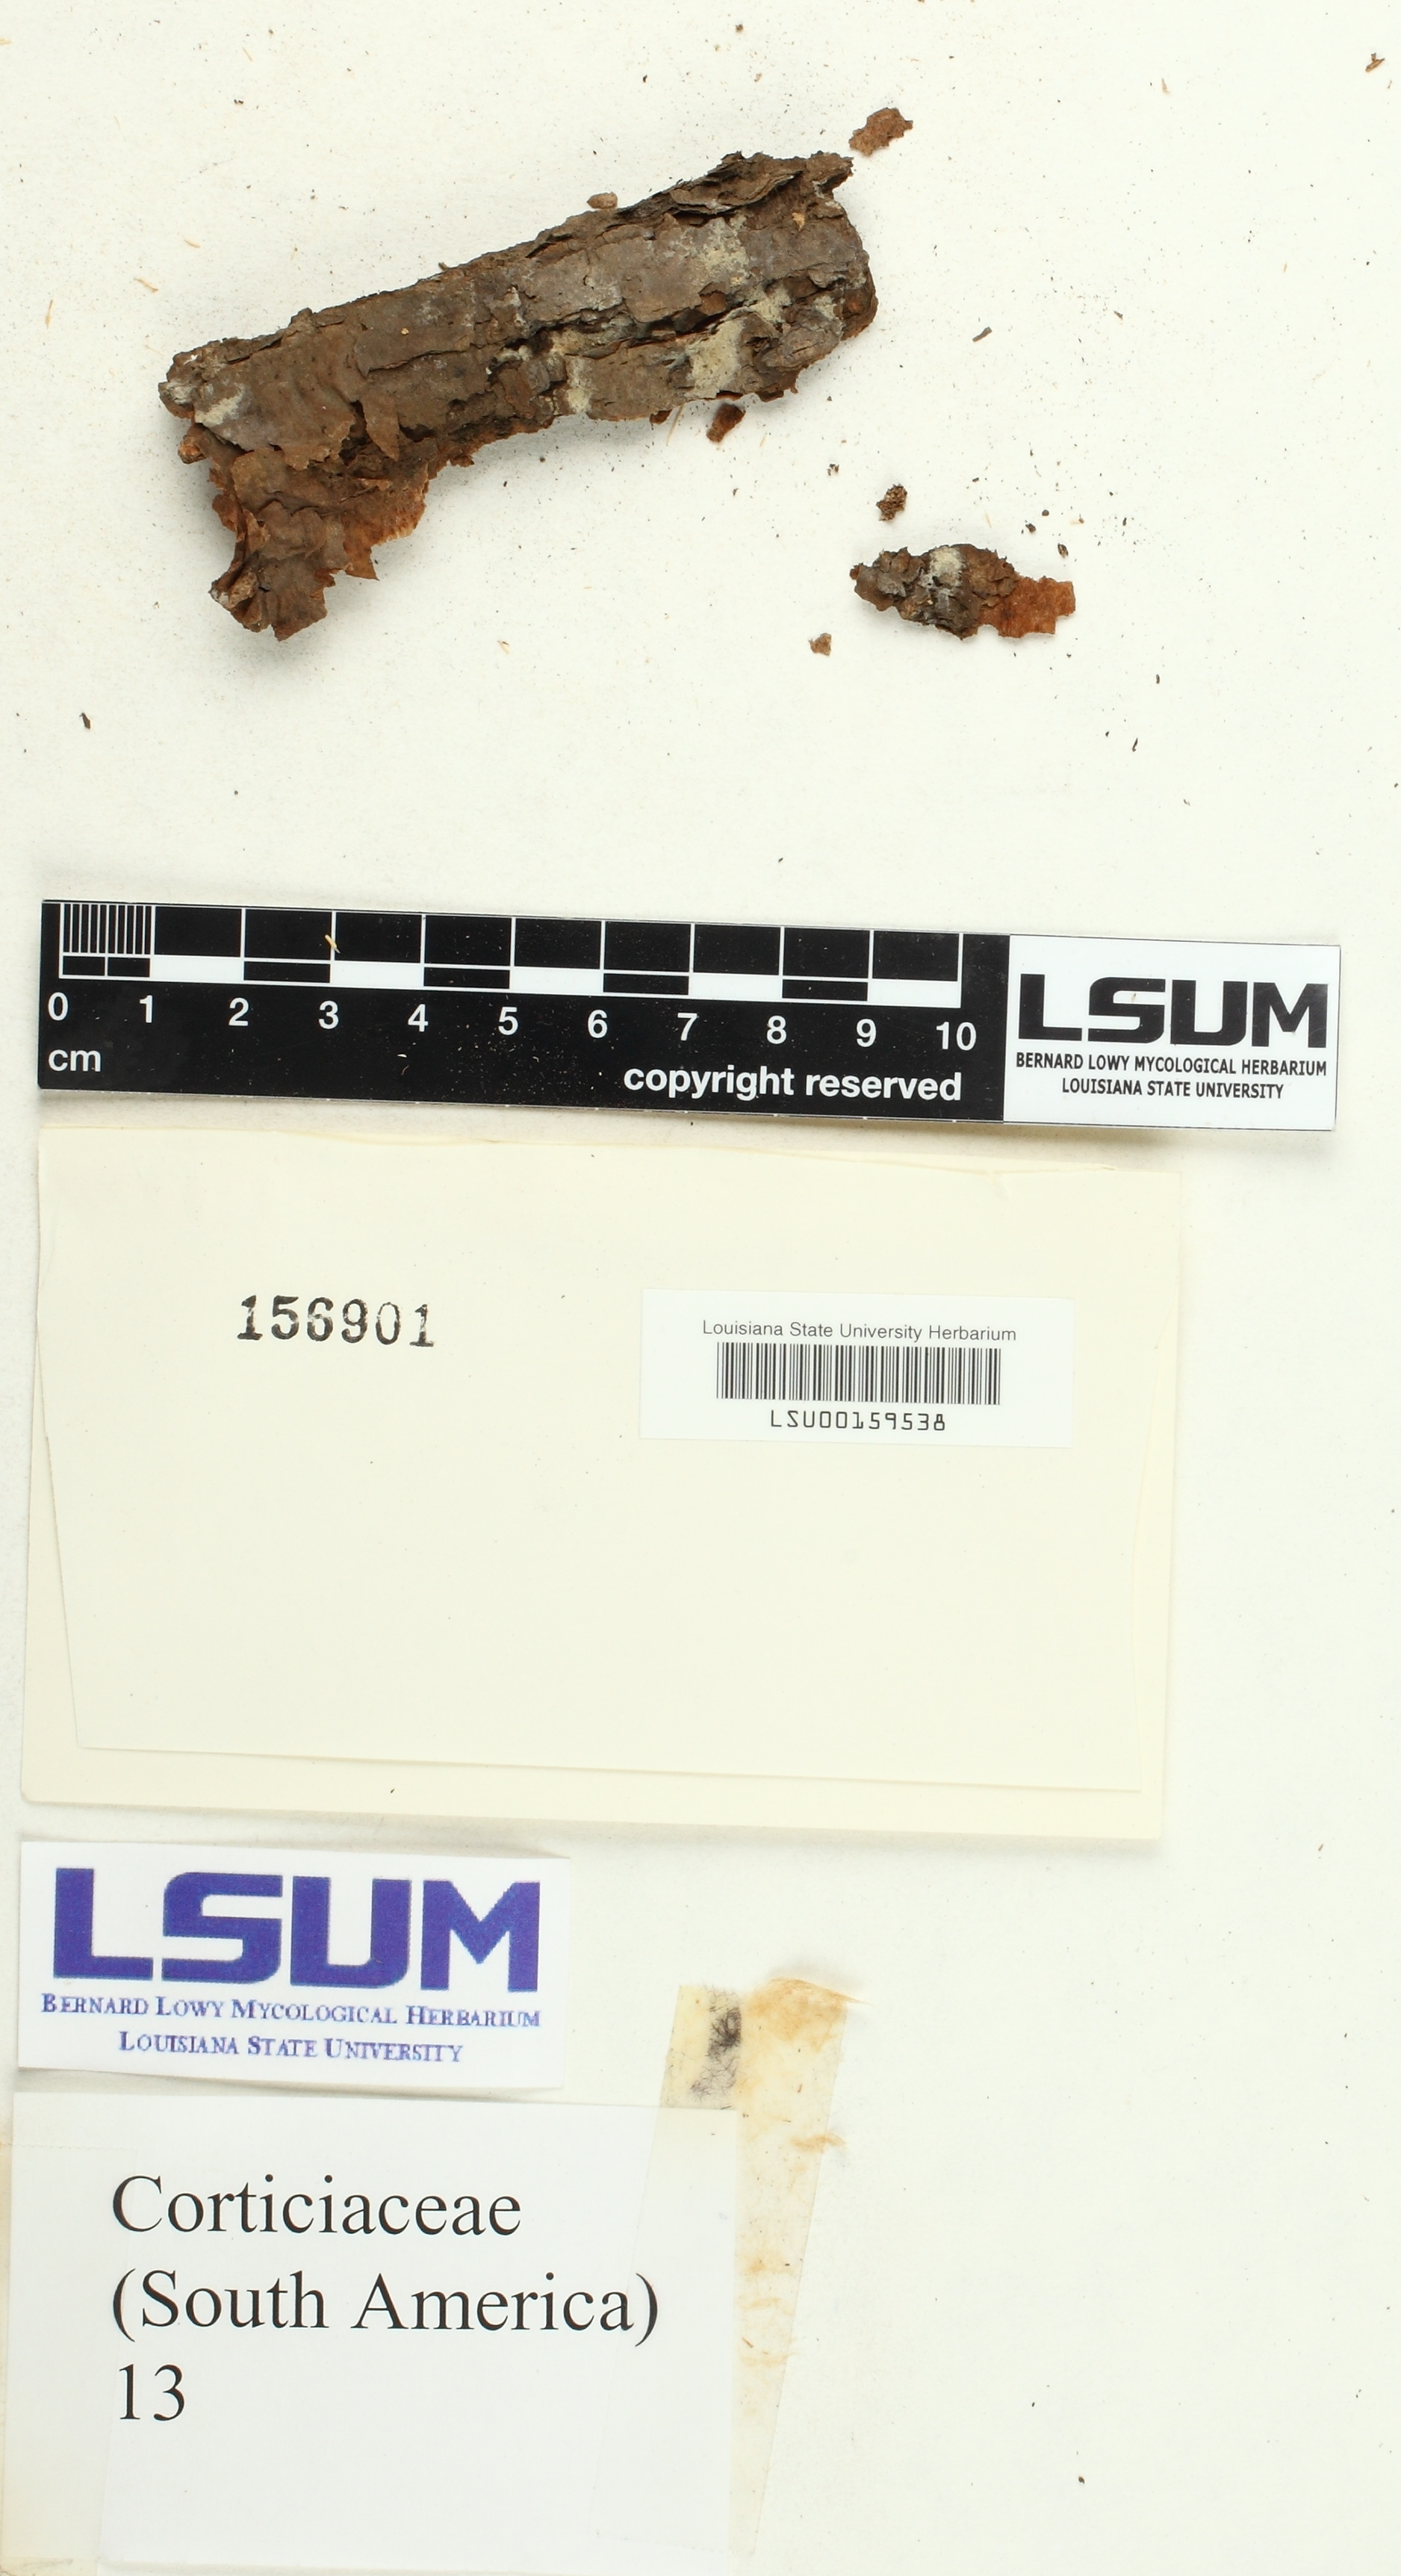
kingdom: Fungi
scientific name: Fungi
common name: Fungi
